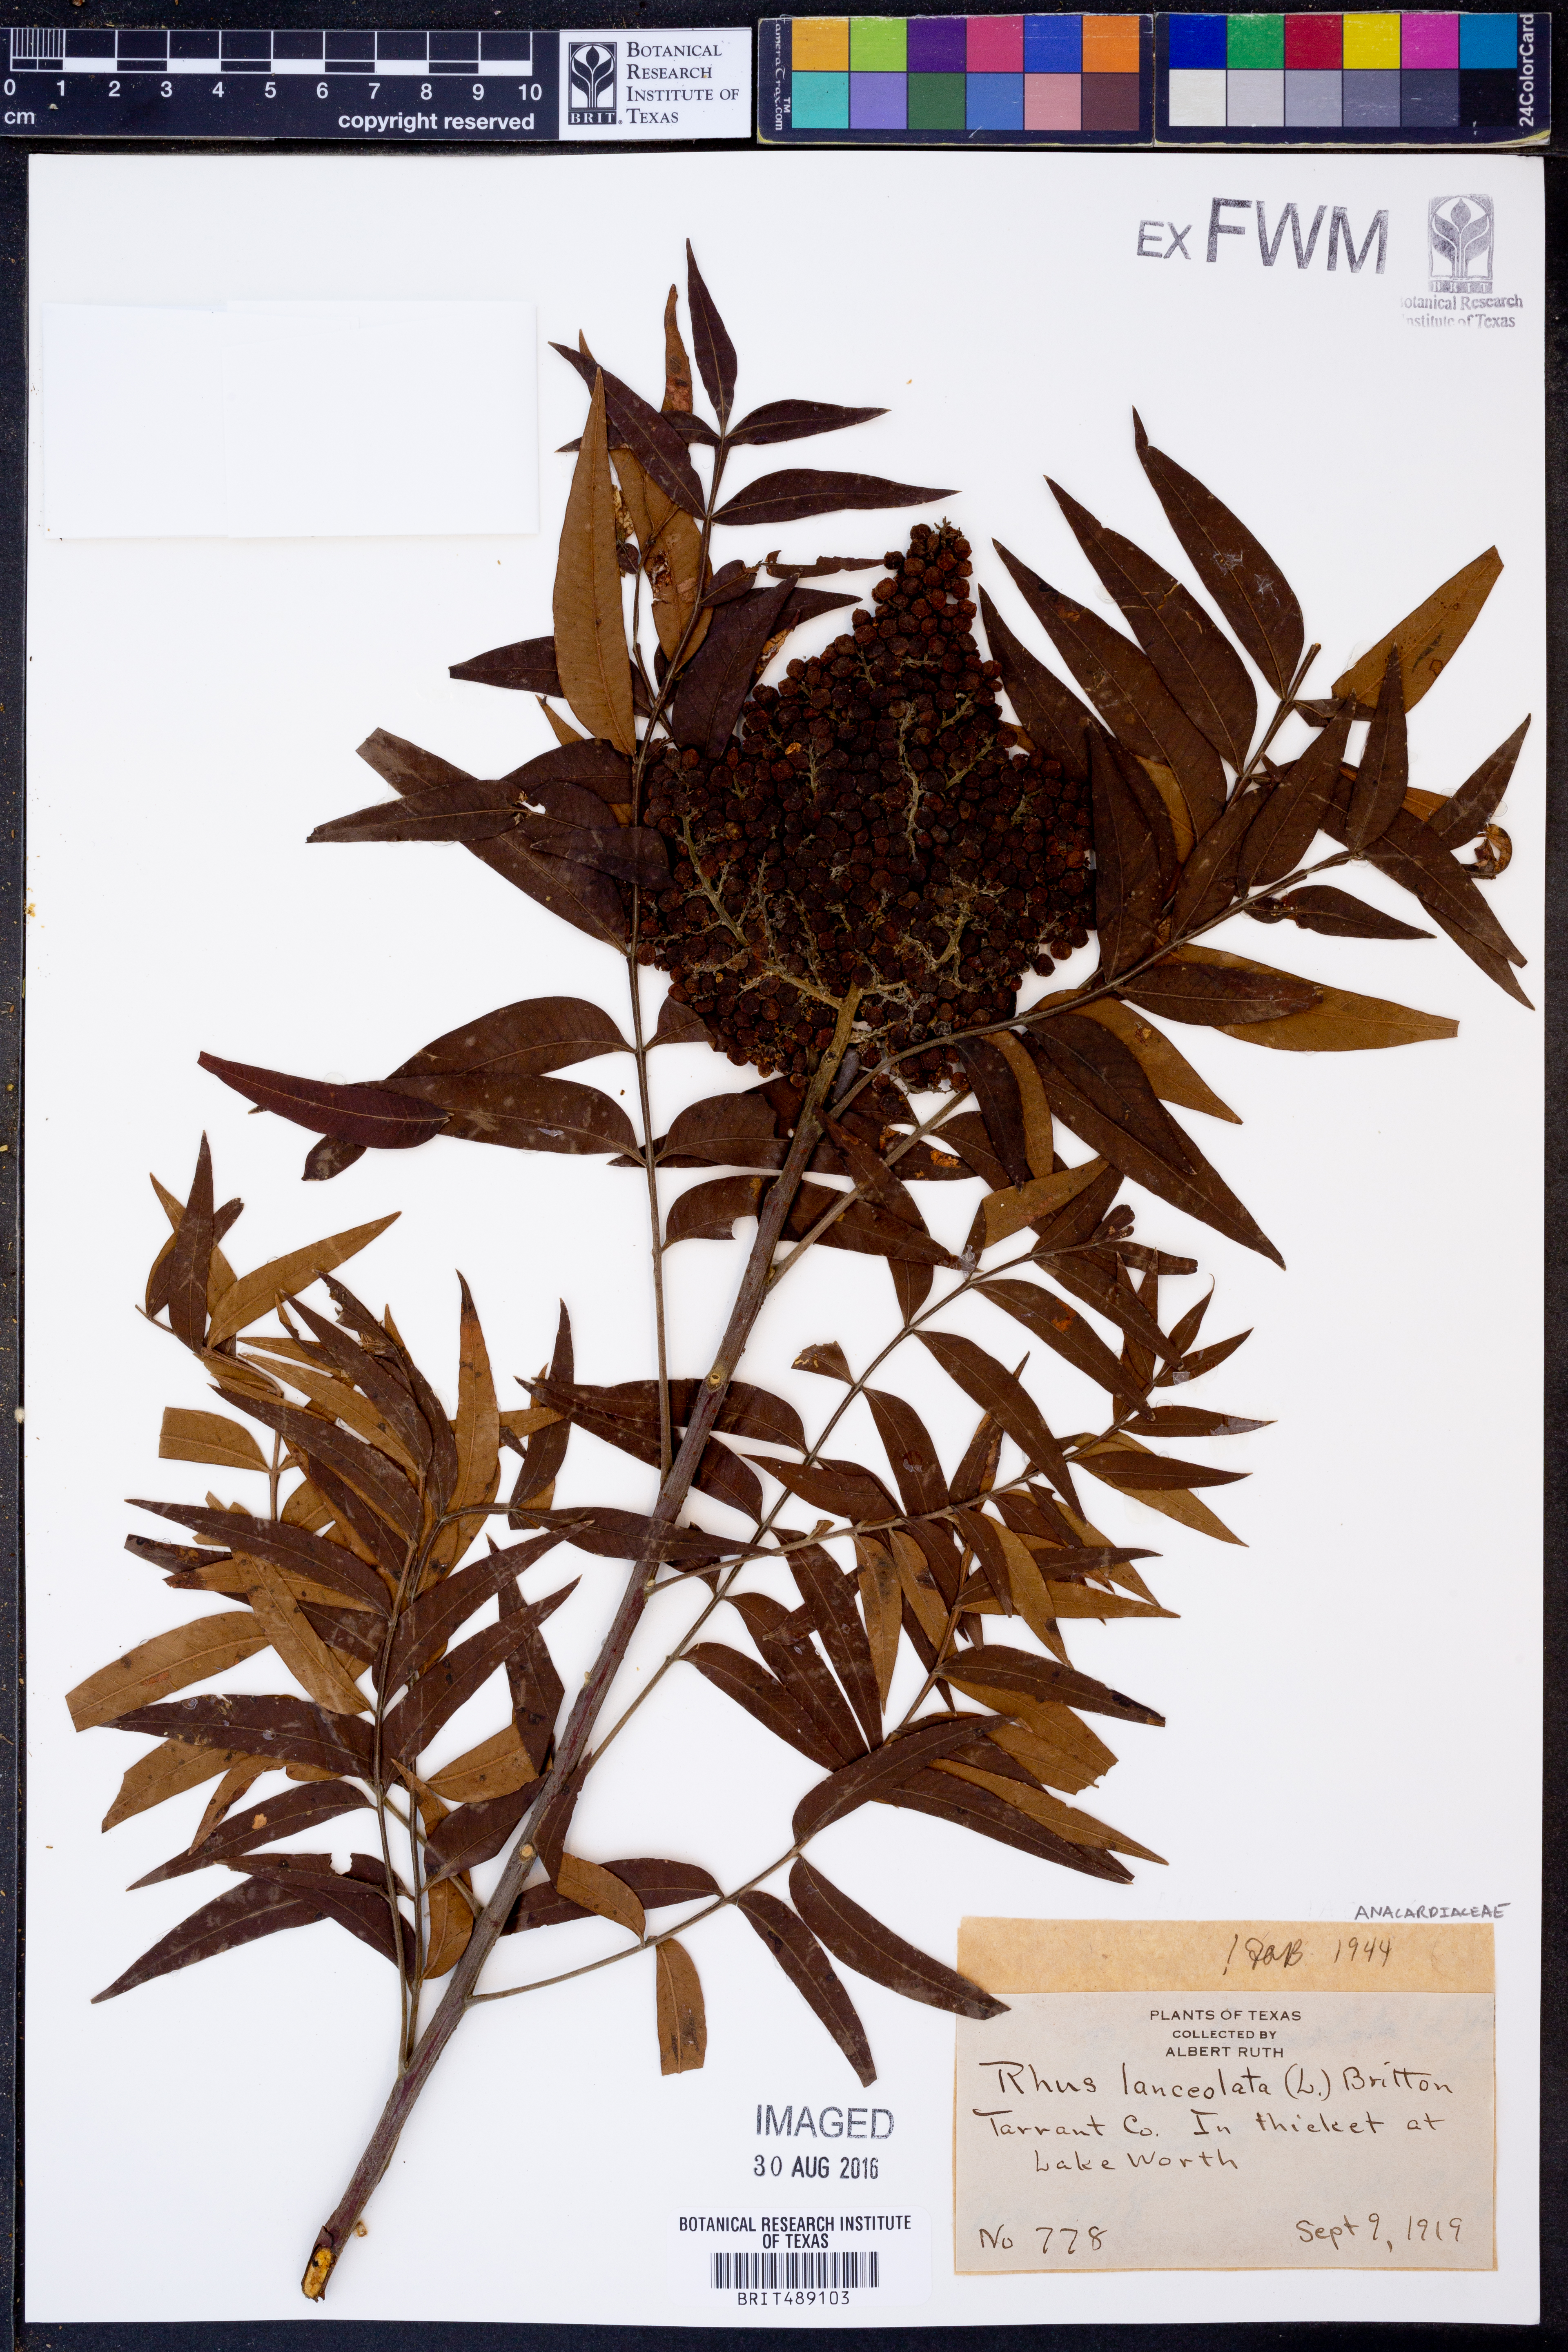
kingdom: Plantae
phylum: Tracheophyta
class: Magnoliopsida
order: Sapindales
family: Anacardiaceae
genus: Rhus
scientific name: Rhus lanceolata
